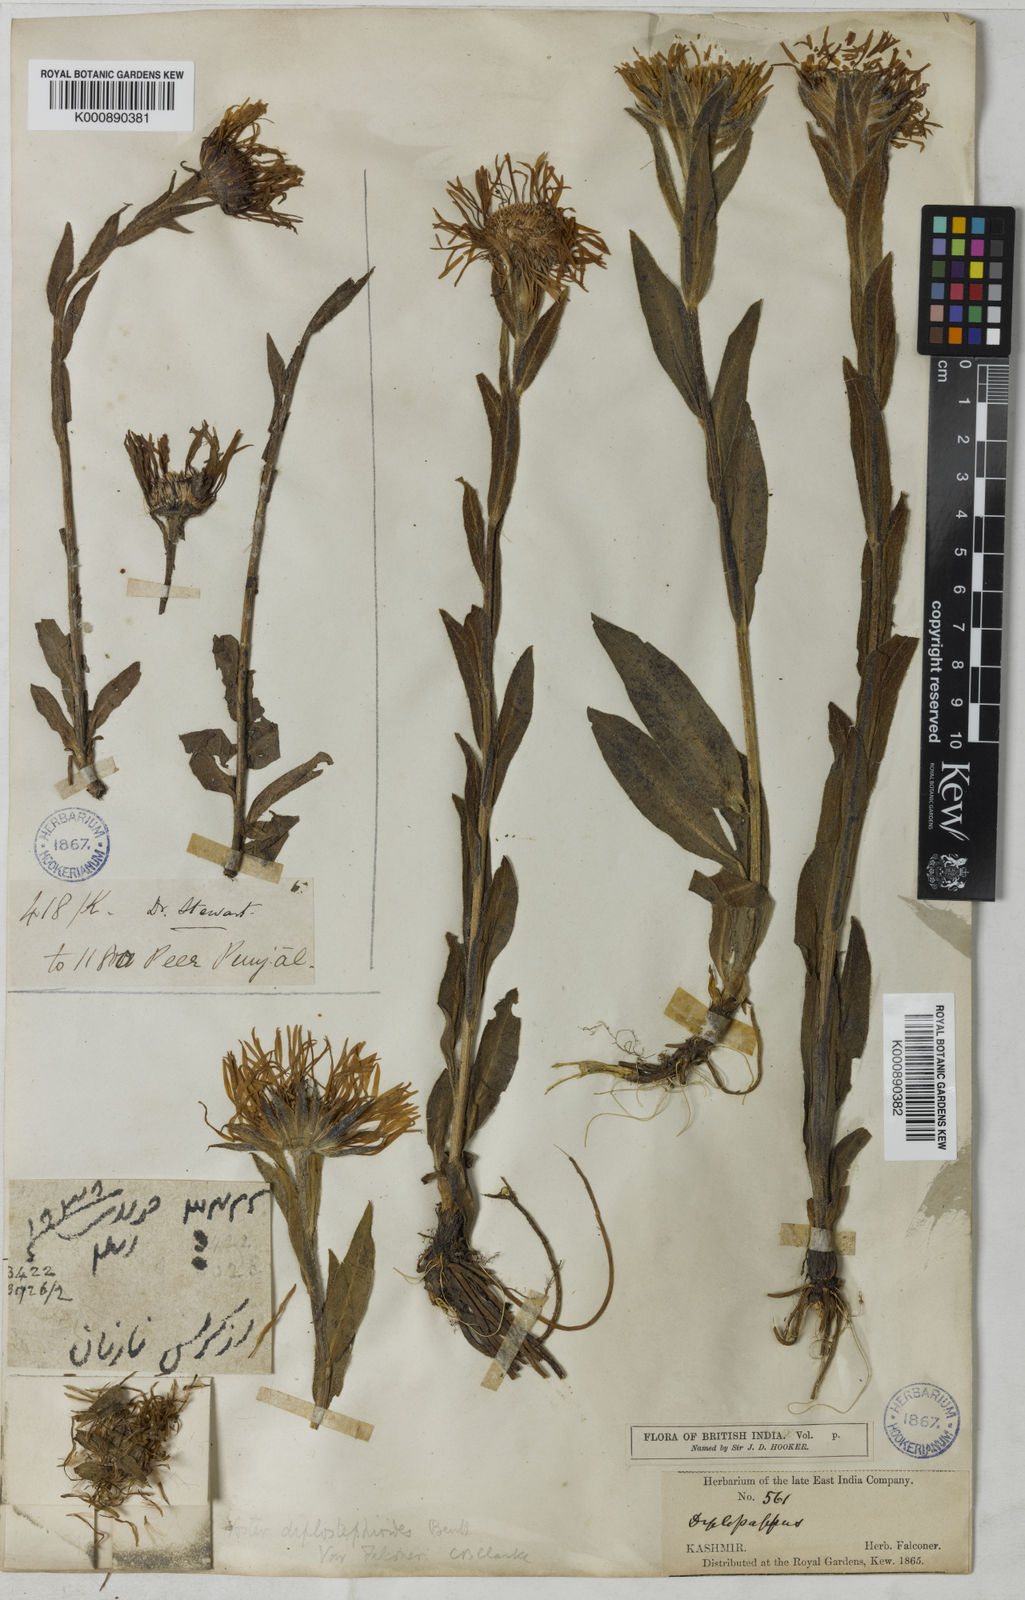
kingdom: Plantae
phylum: Tracheophyta
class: Magnoliopsida
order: Asterales
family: Asteraceae
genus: Tibetiodes
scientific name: Tibetiodes falconeri
